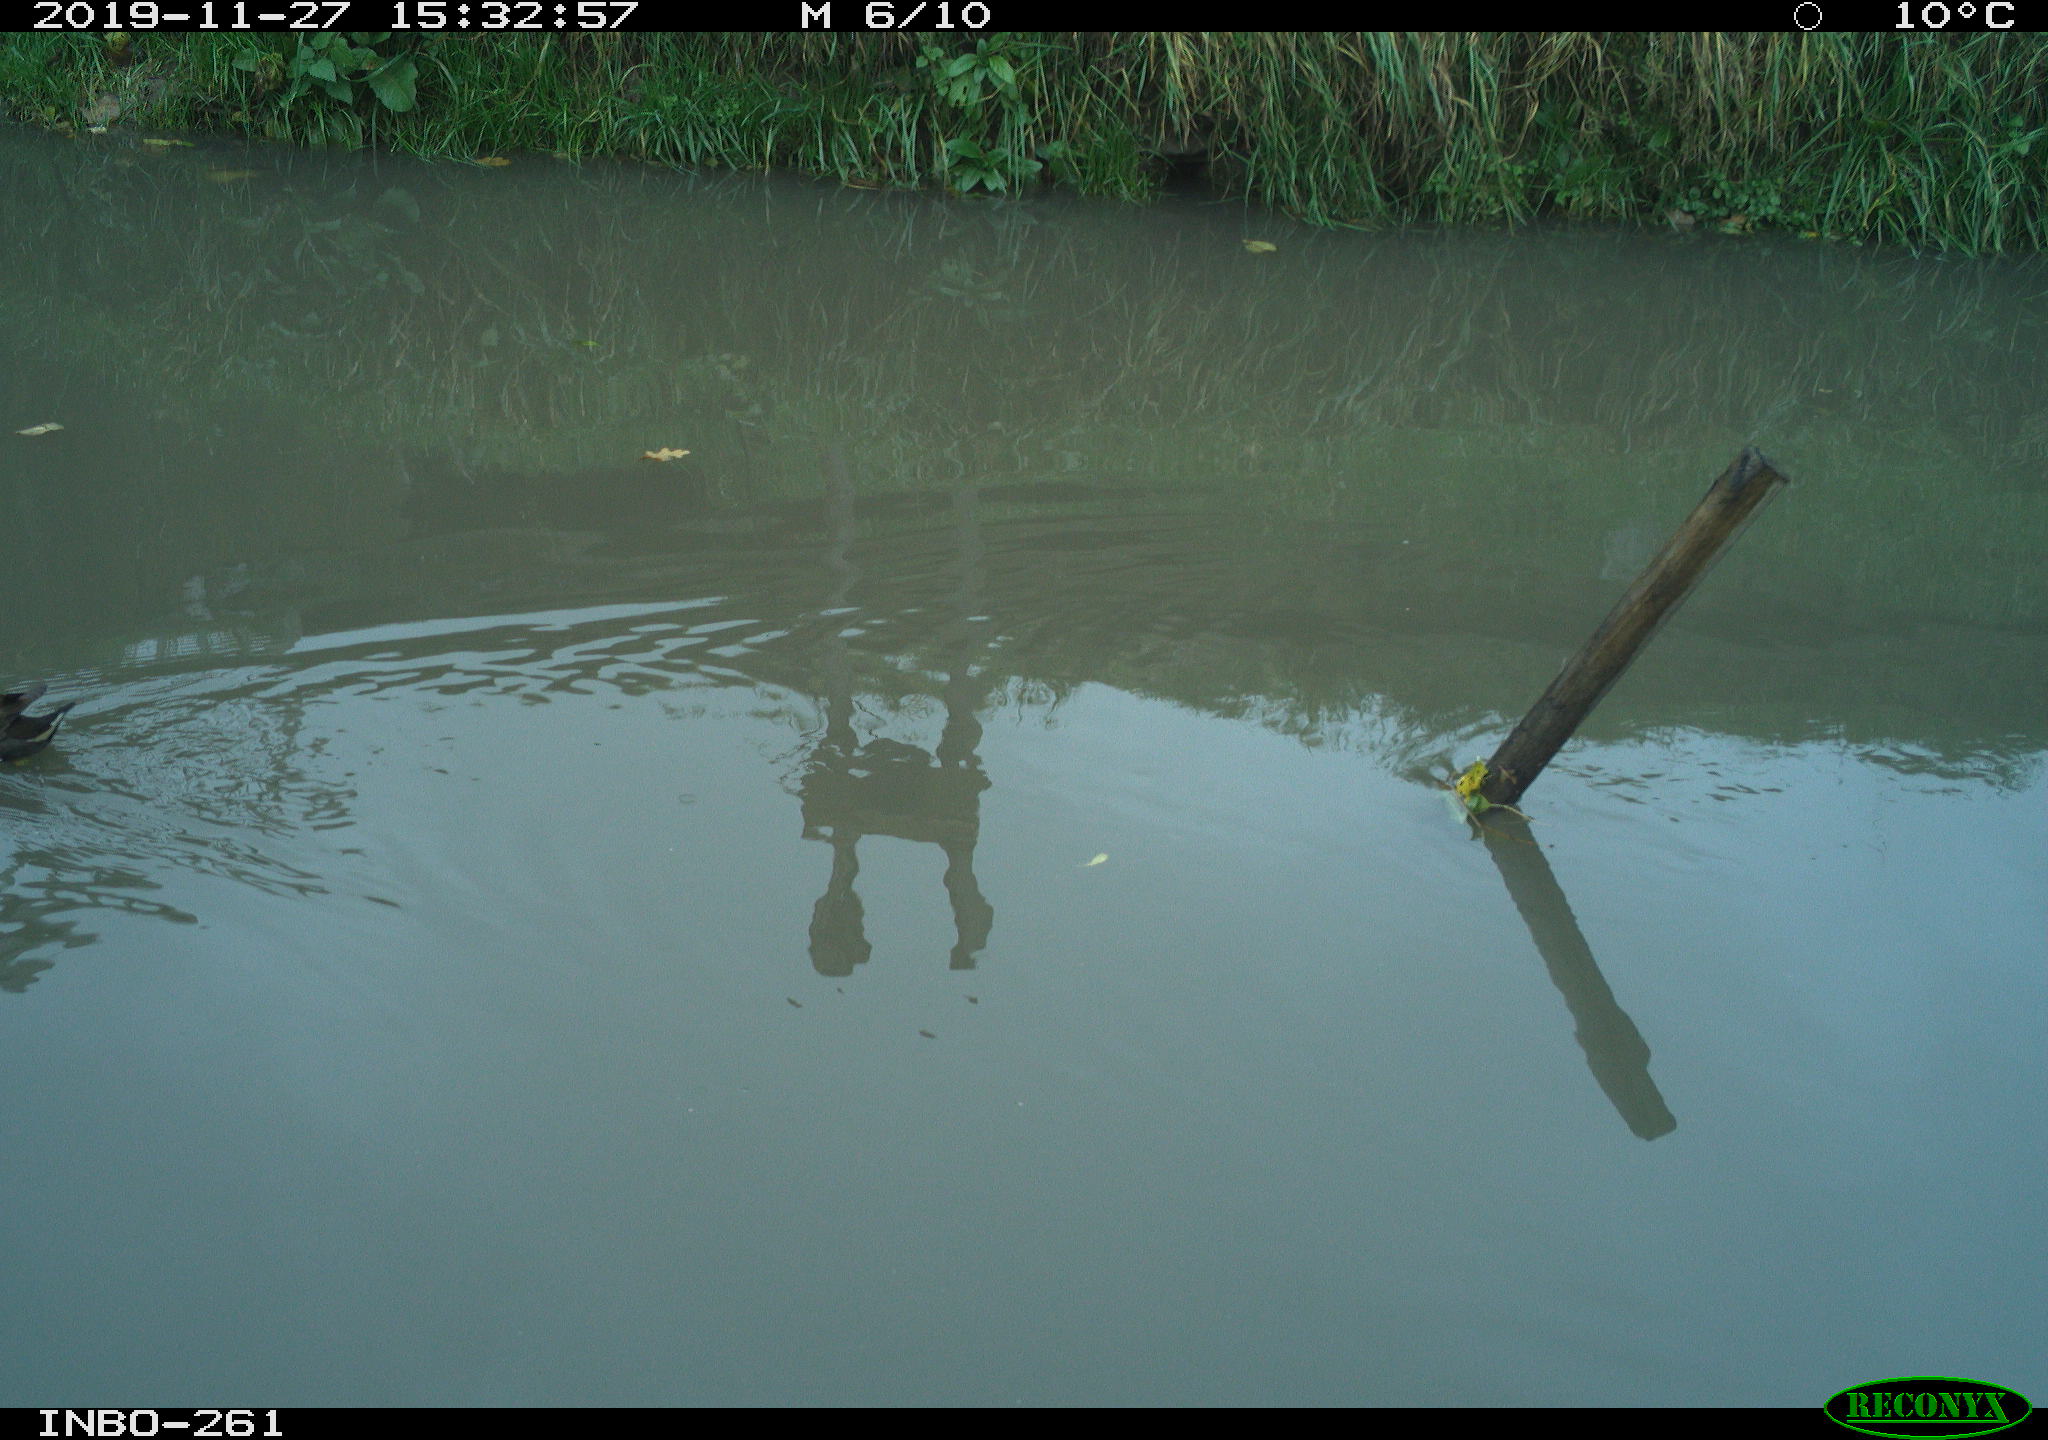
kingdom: Animalia
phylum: Chordata
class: Aves
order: Gruiformes
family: Rallidae
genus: Gallinula
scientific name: Gallinula chloropus
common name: Common moorhen
